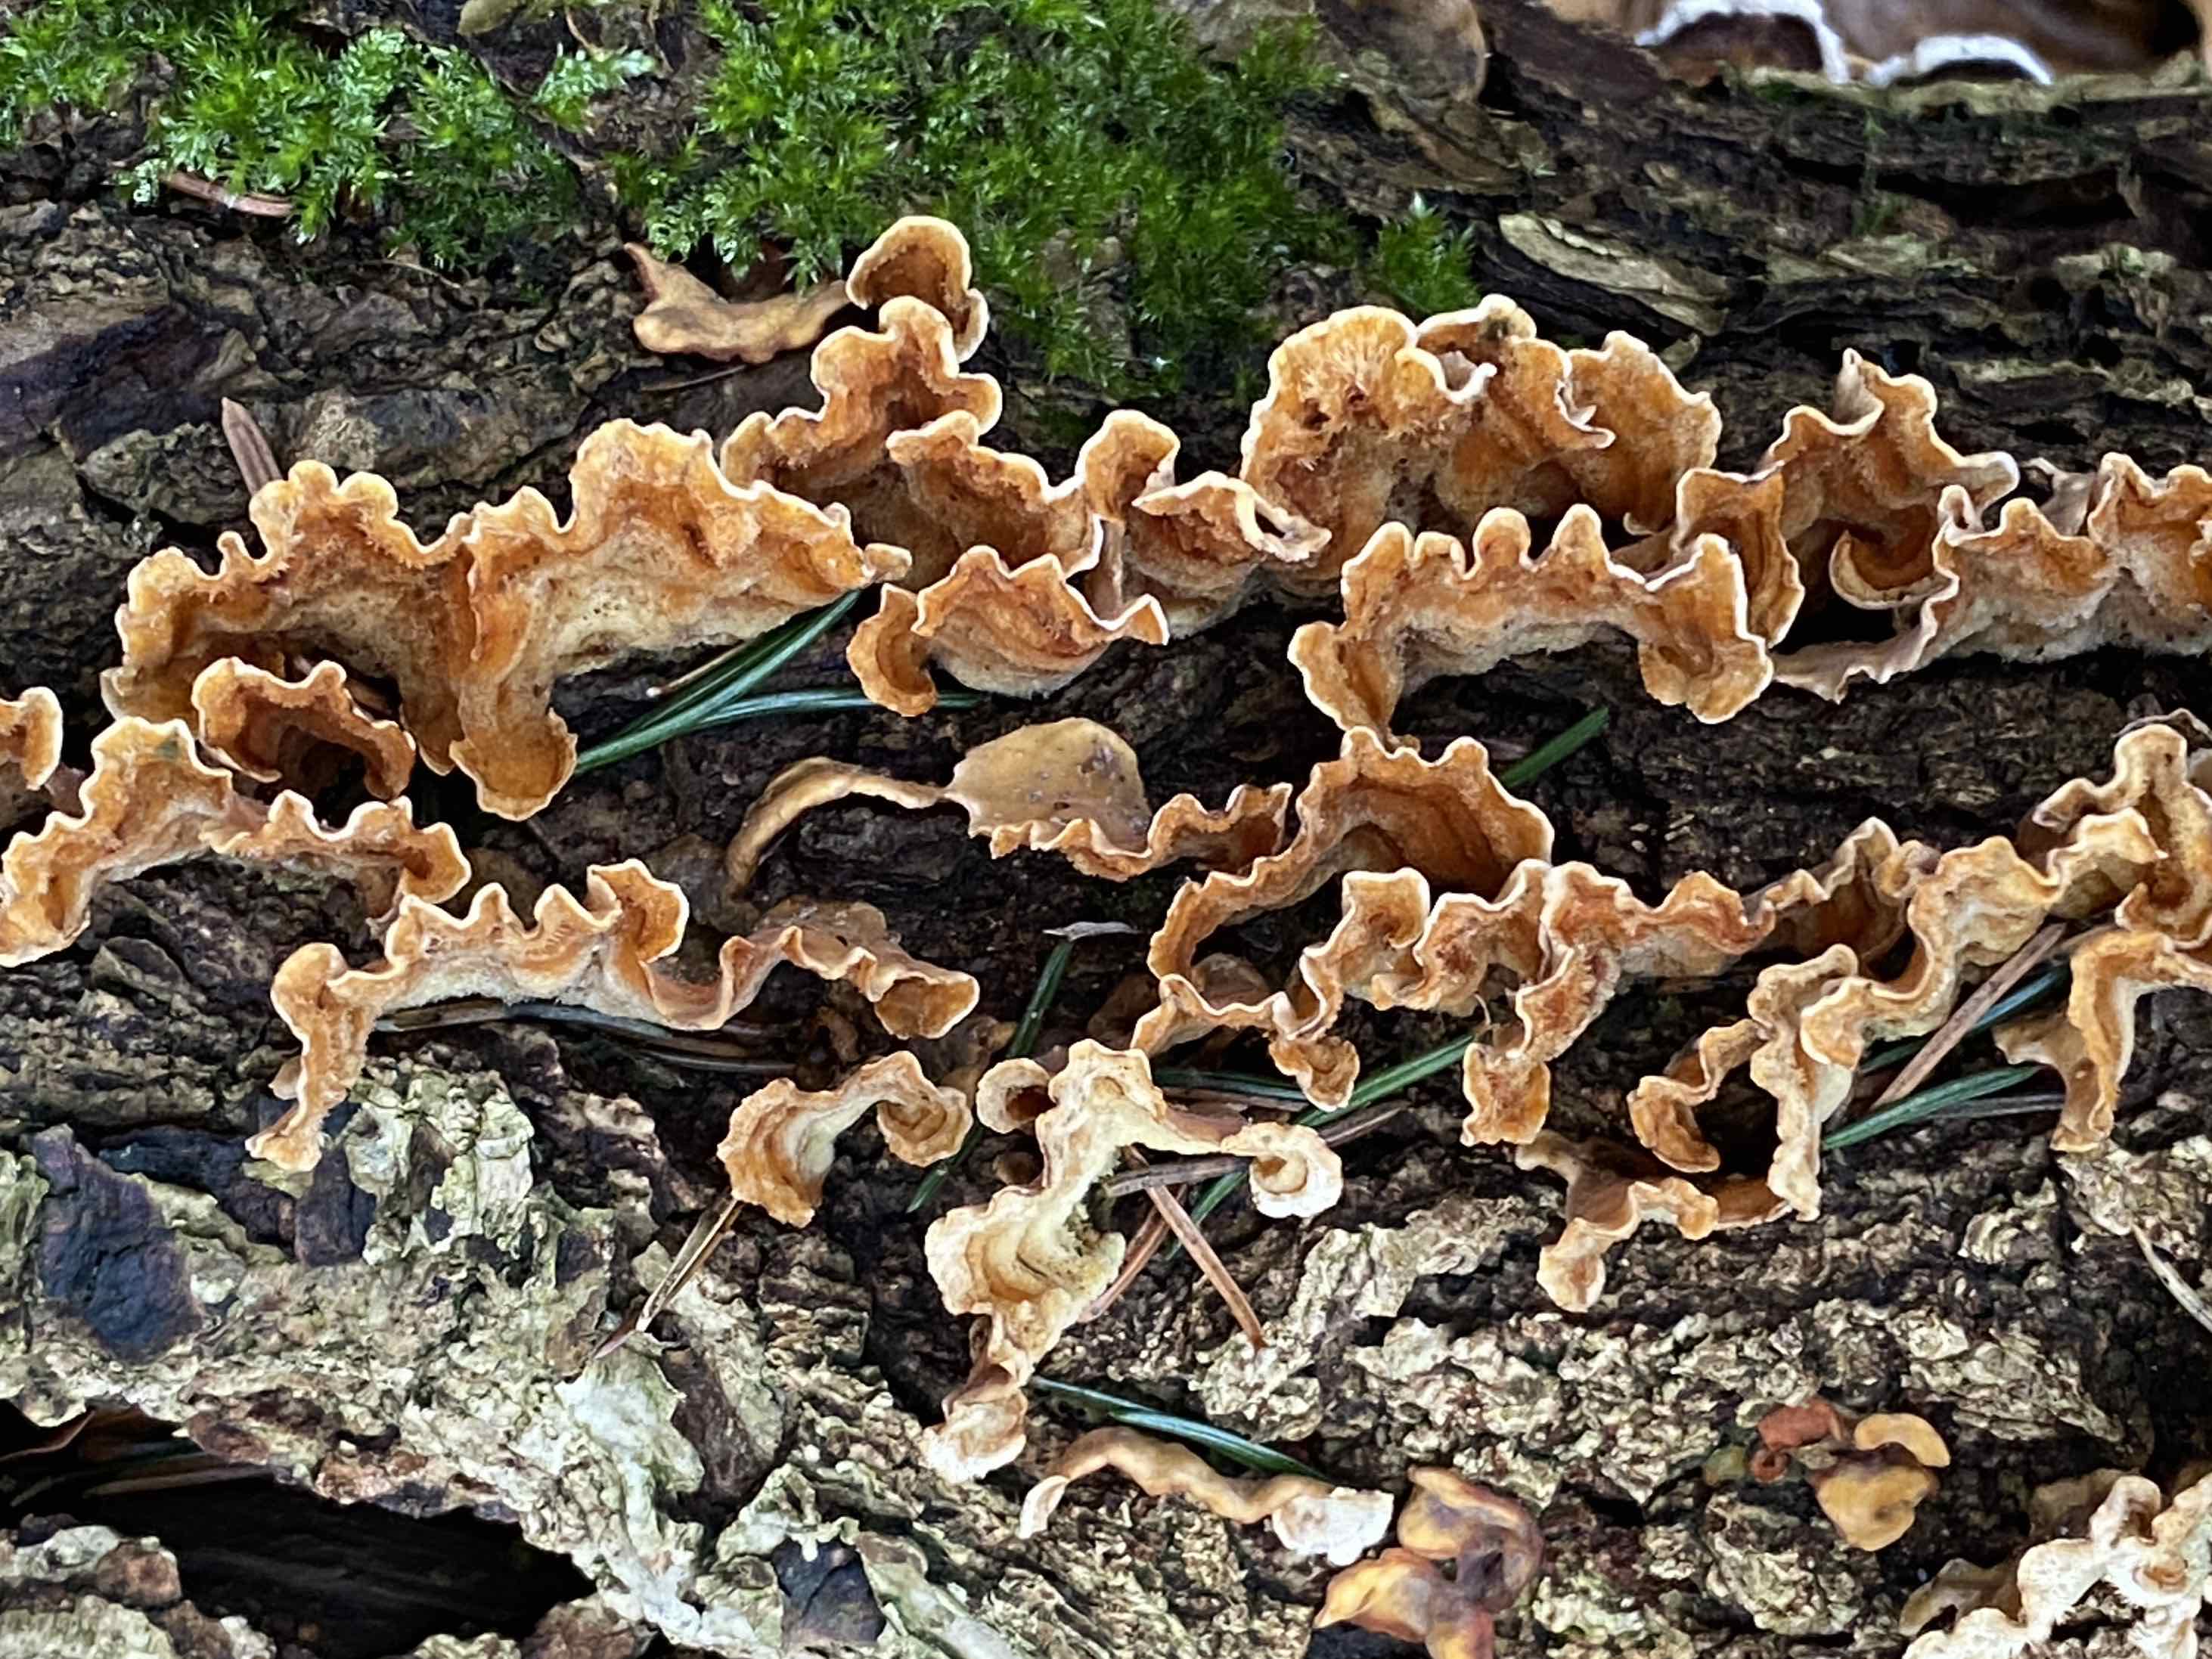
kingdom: Fungi
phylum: Basidiomycota
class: Agaricomycetes
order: Russulales
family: Stereaceae
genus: Stereum
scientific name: Stereum hirsutum
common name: håret lædersvamp
